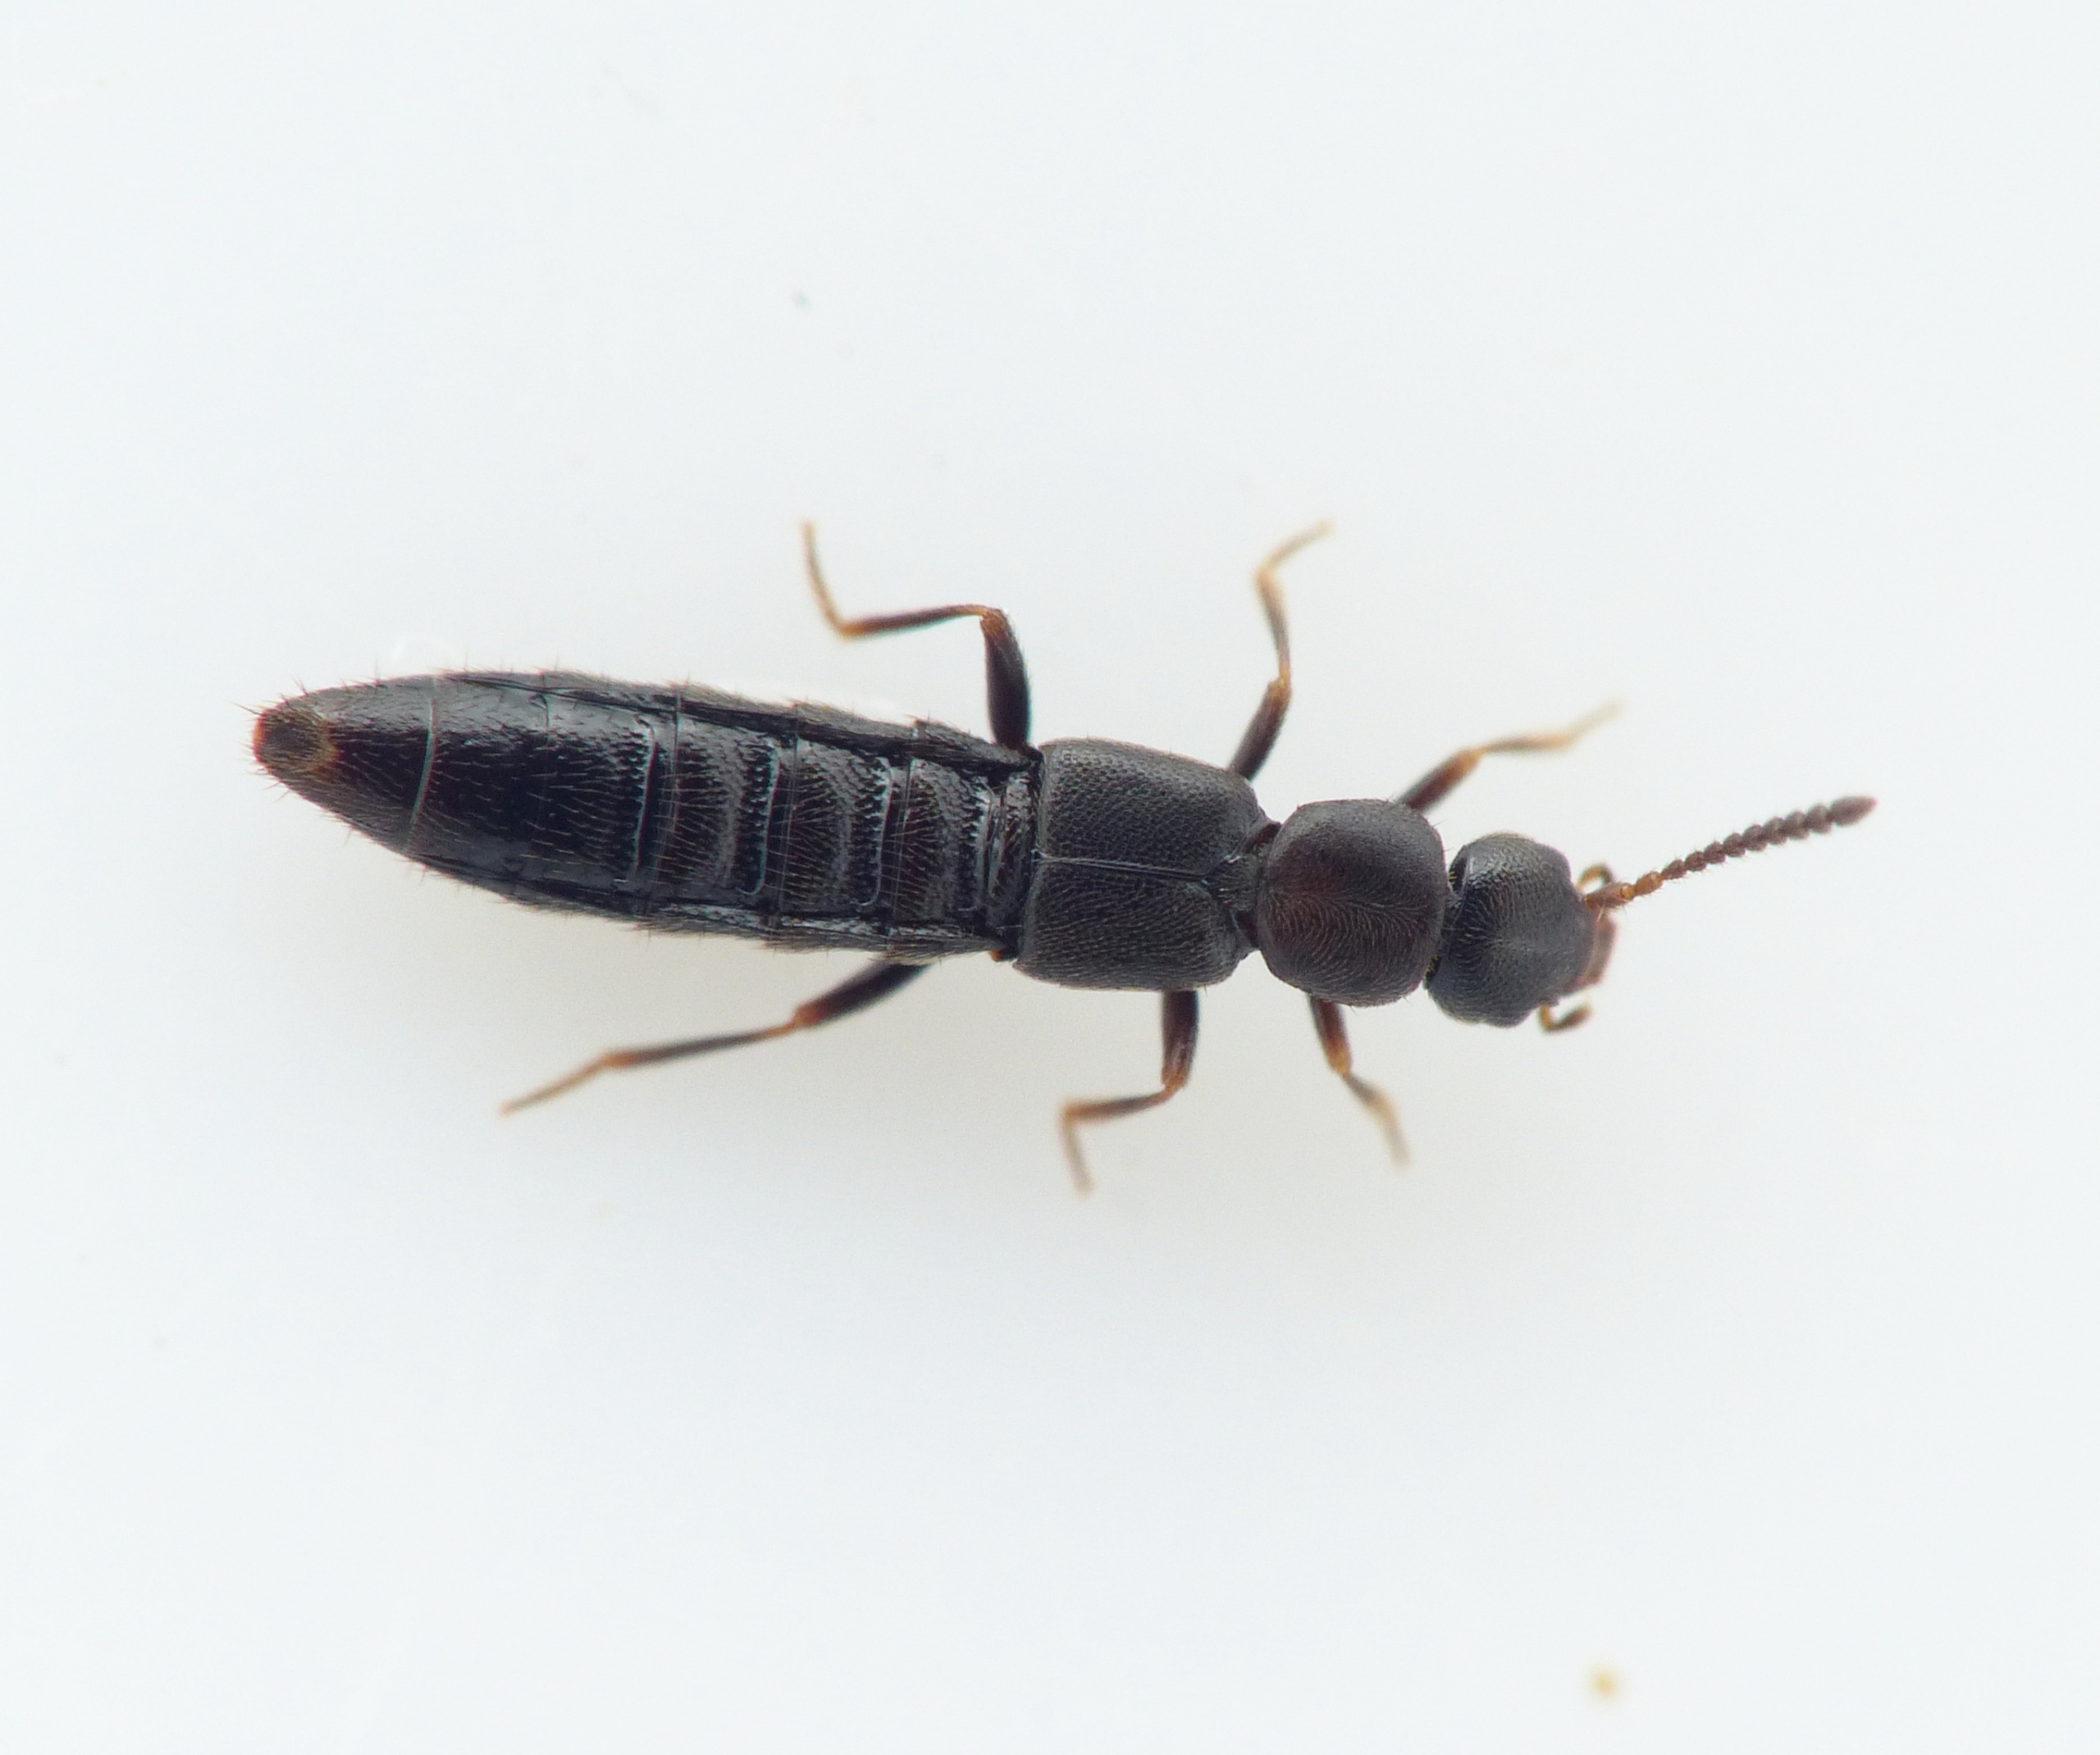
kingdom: Animalia
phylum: Arthropoda
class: Insecta
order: Coleoptera
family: Staphylinidae
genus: Alianta
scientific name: Alianta incana
